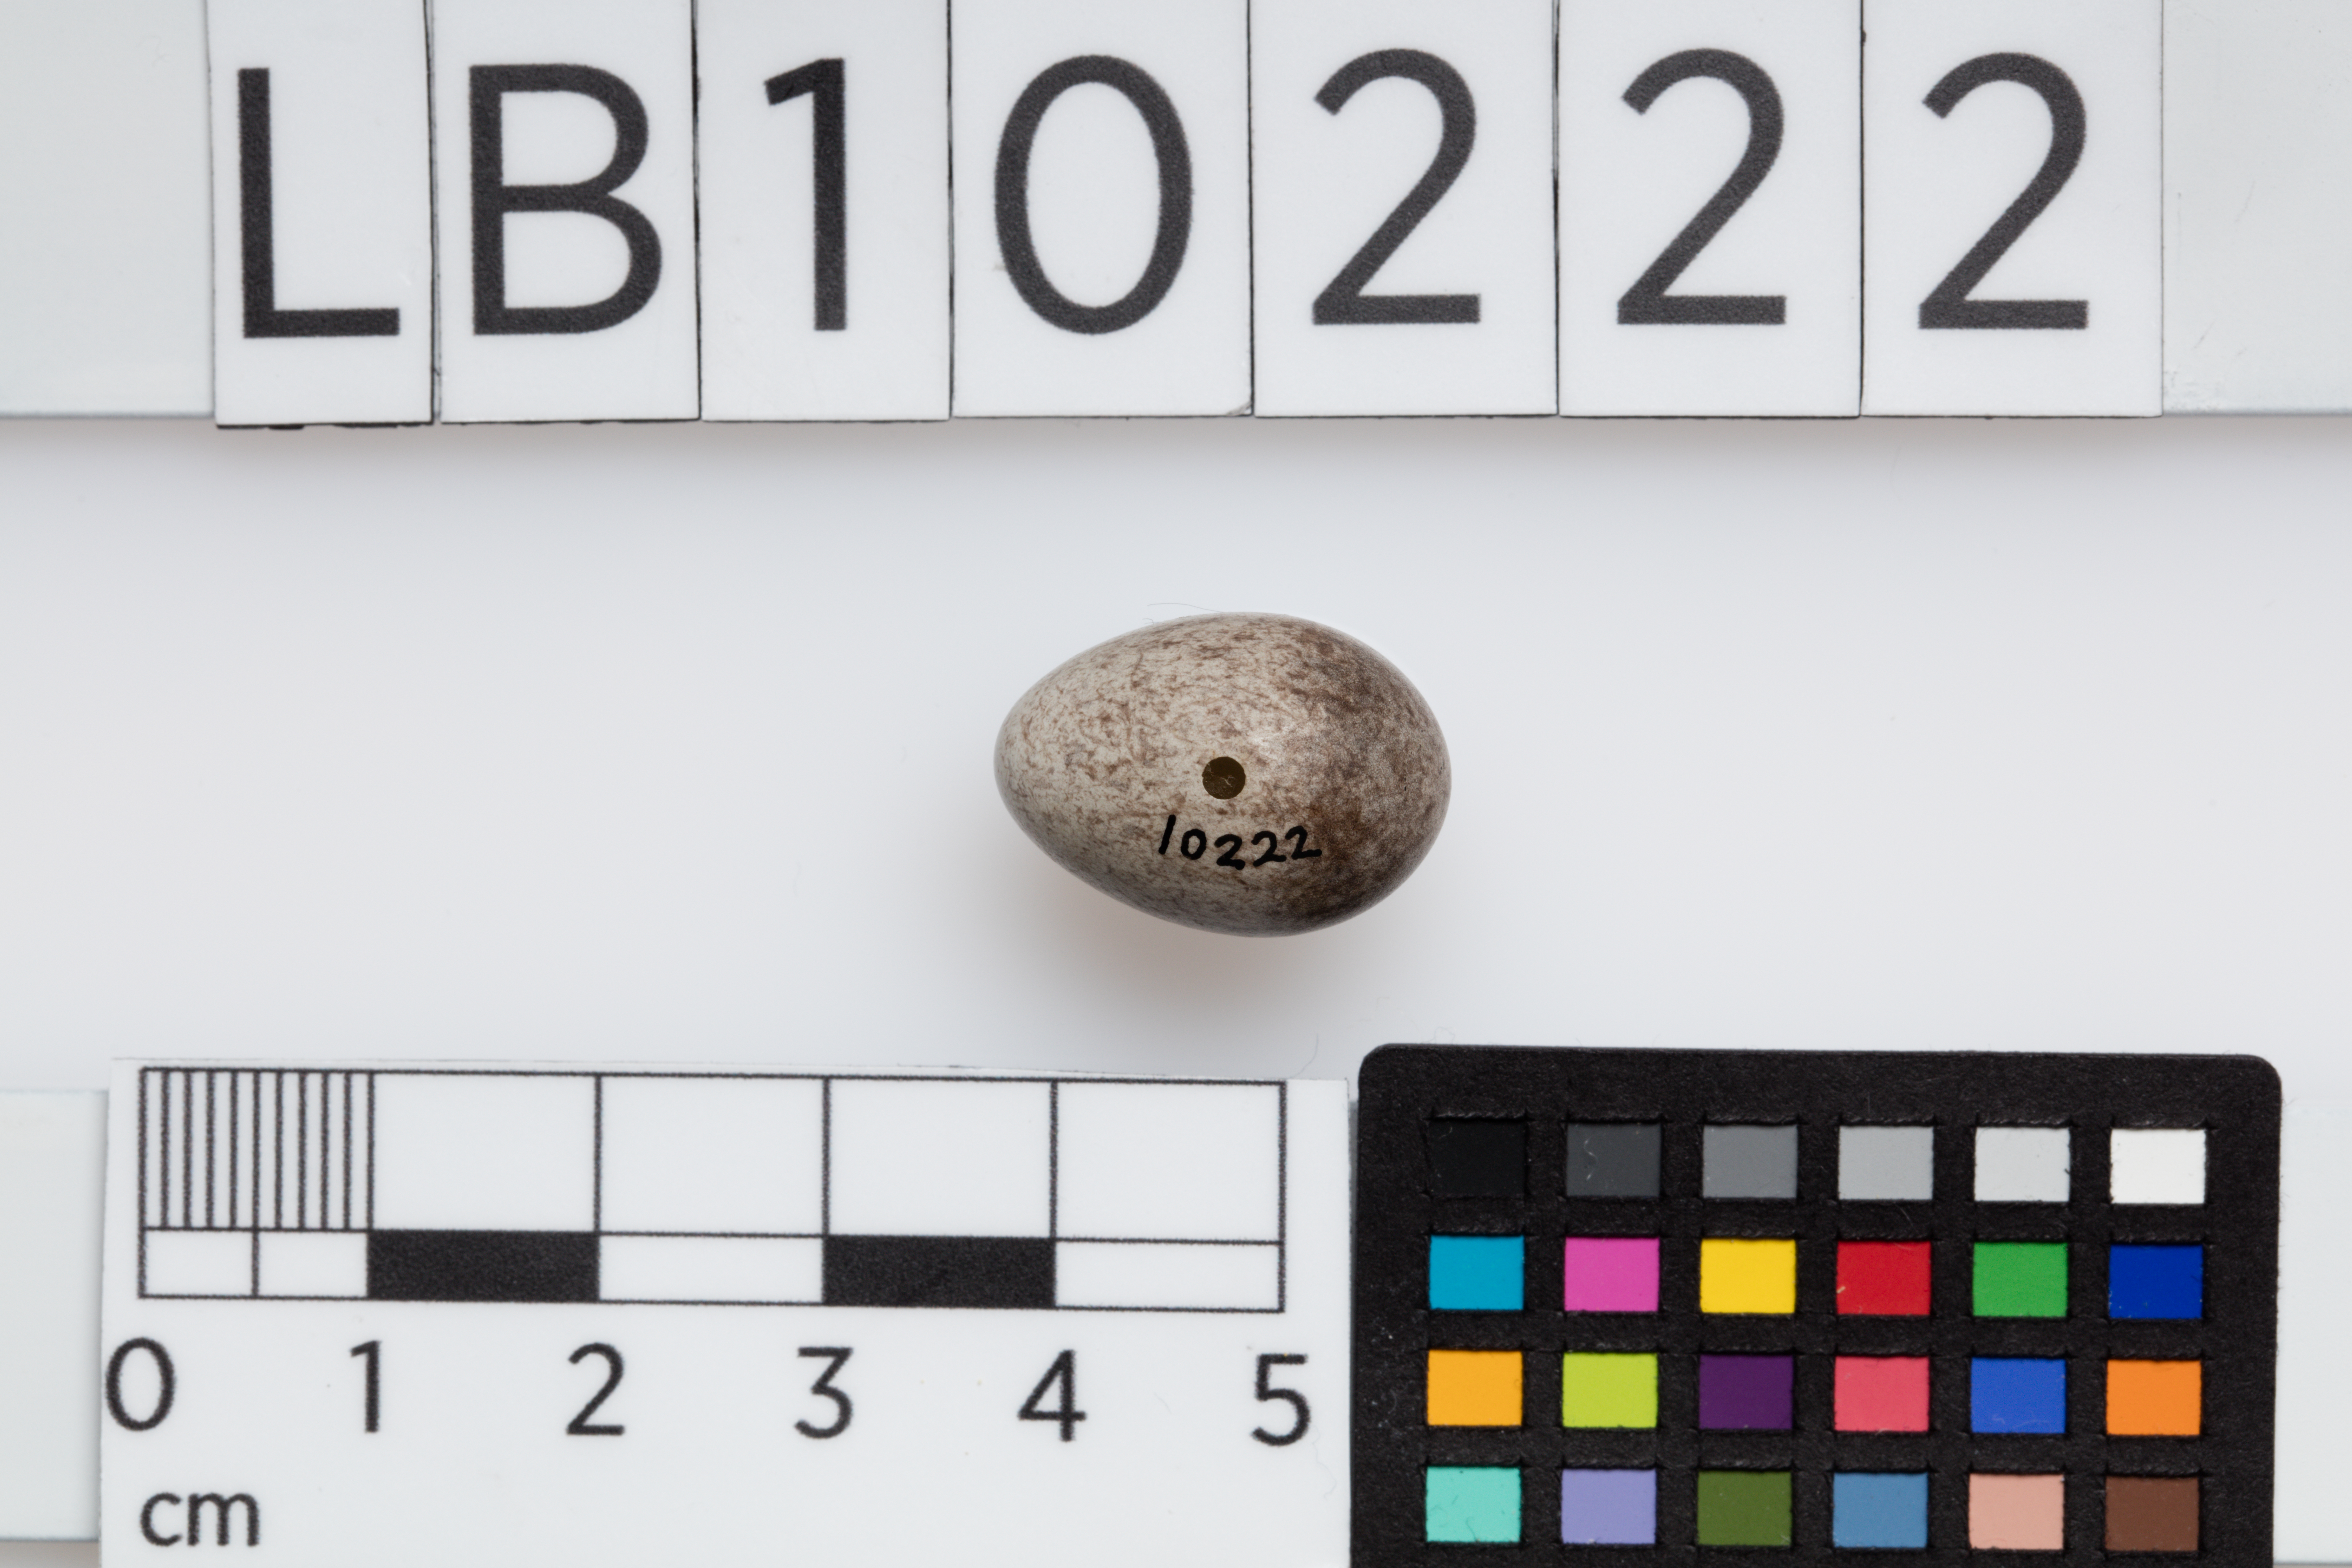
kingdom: Animalia
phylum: Chordata
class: Aves
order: Passeriformes
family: Motacillidae
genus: Anthus
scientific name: Anthus pratensis
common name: Meadow pipit
